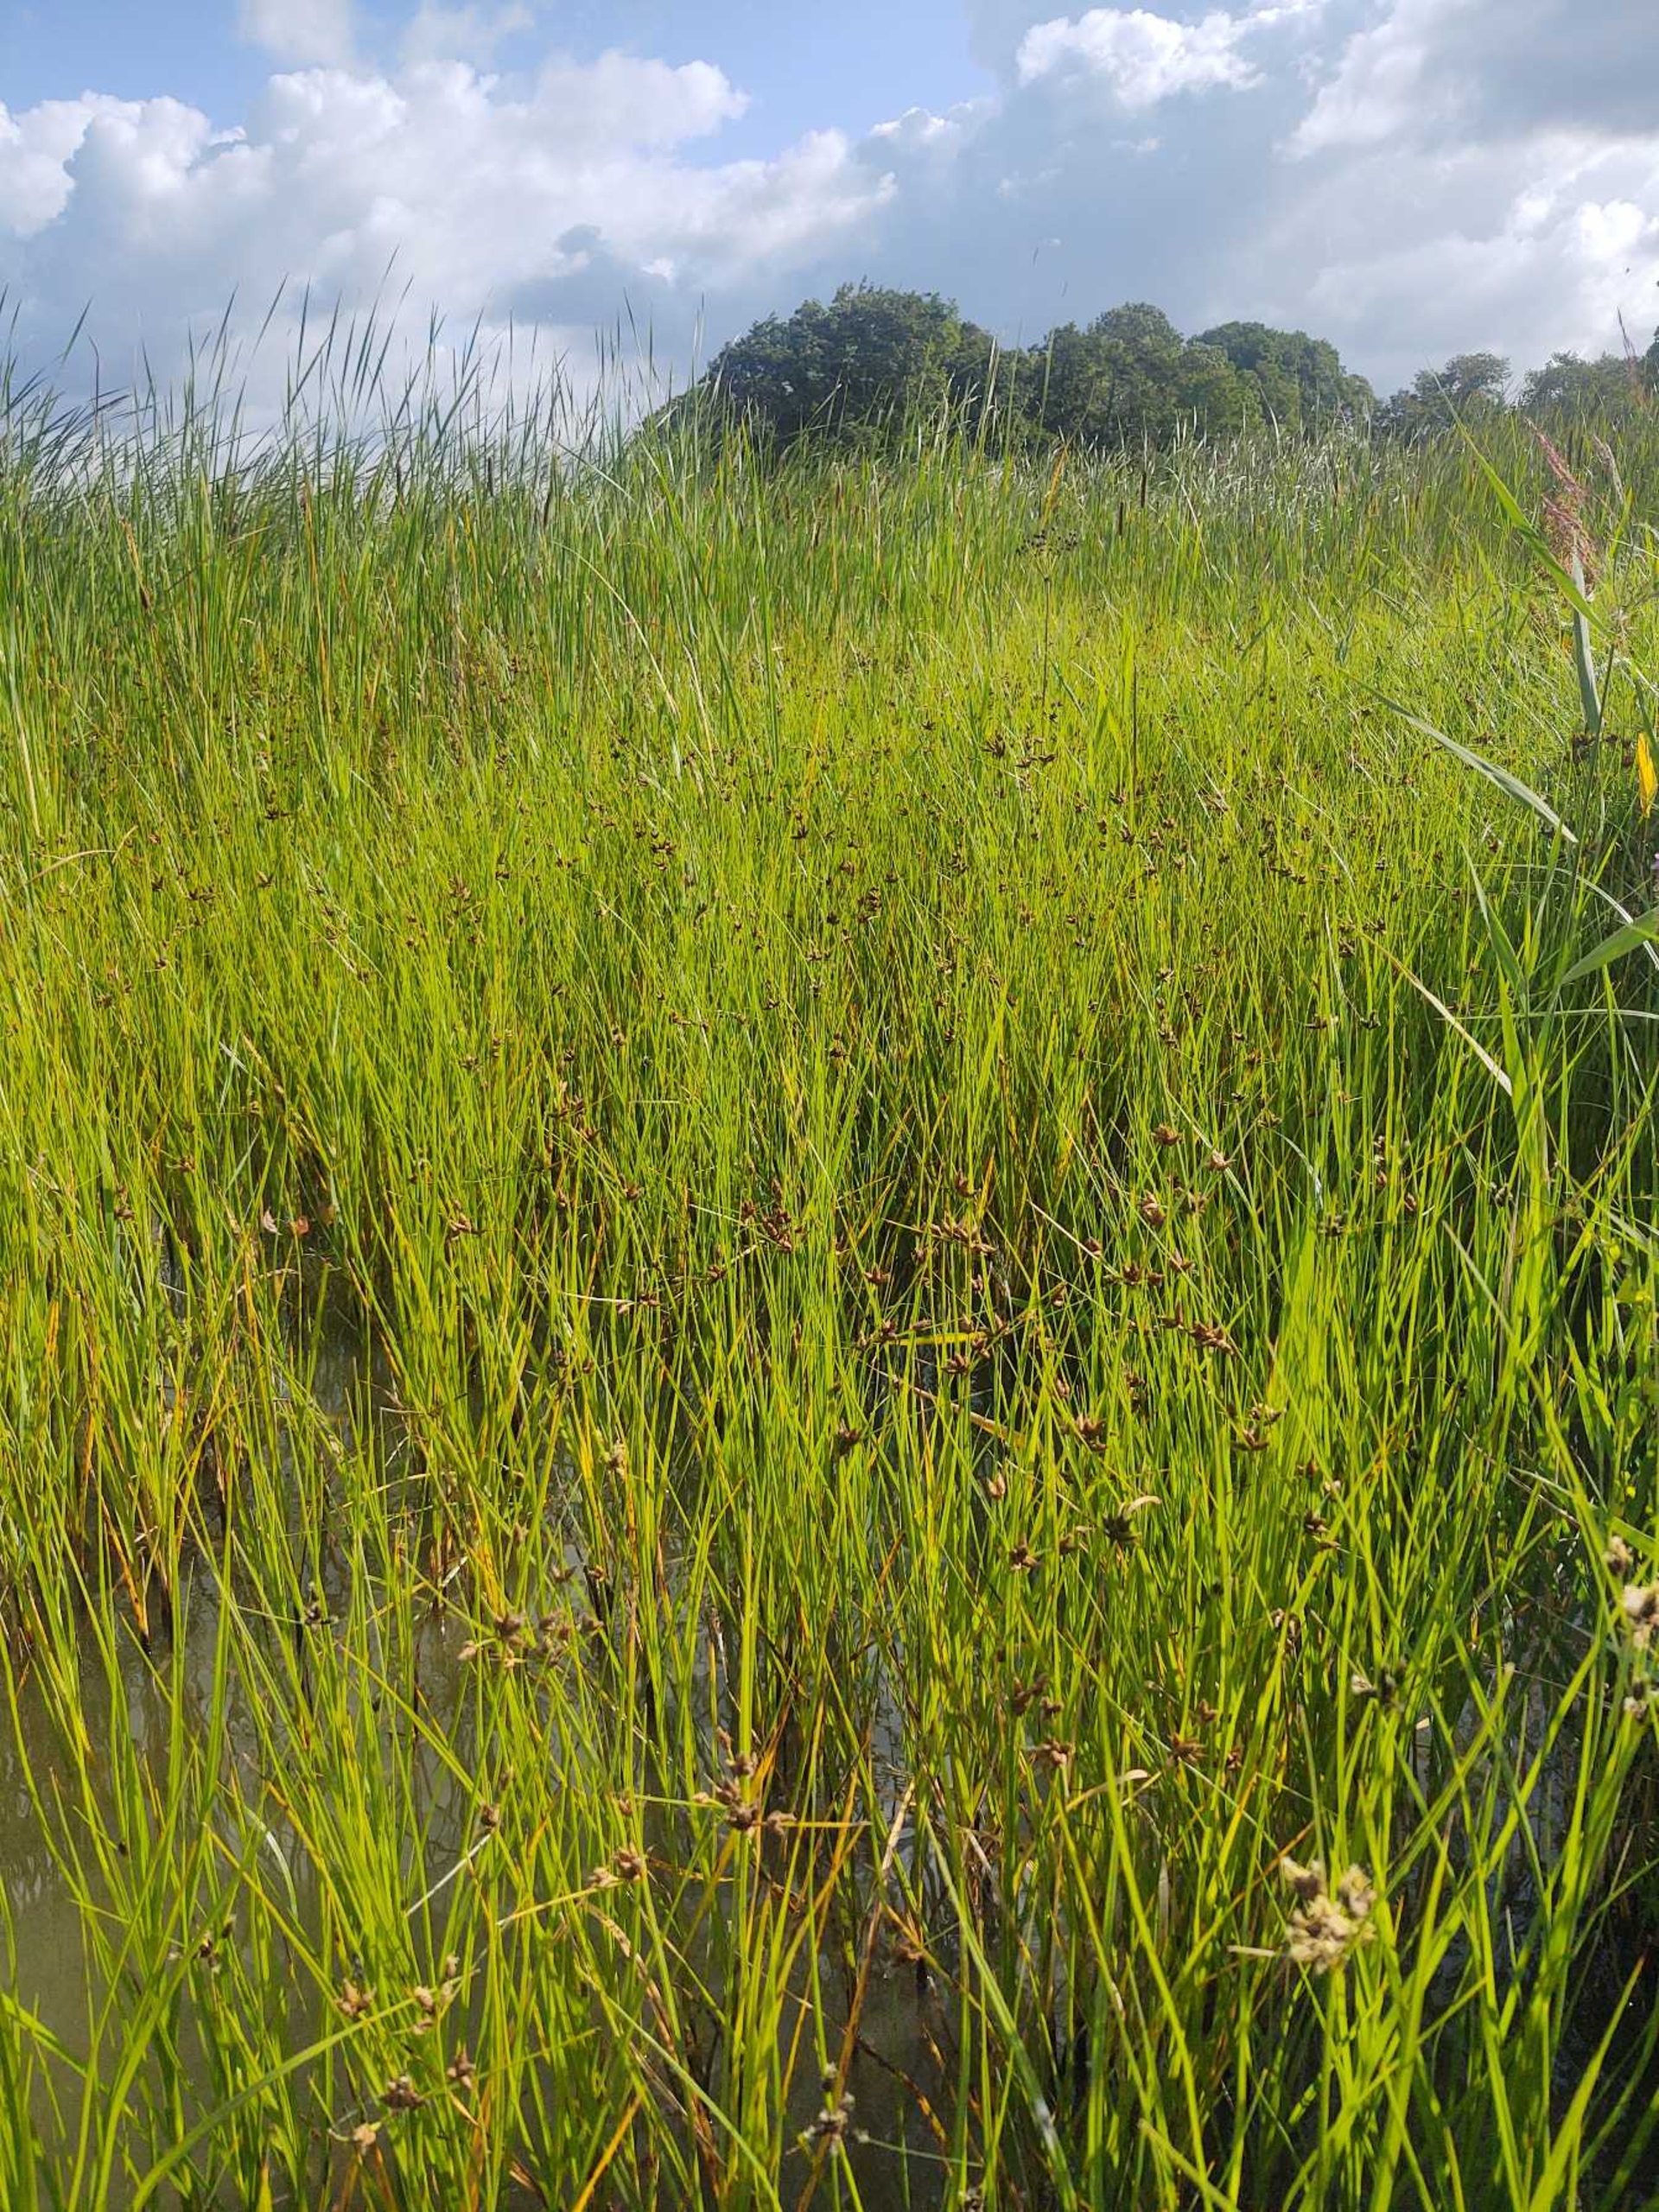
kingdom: Plantae
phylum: Tracheophyta
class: Liliopsida
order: Poales
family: Cyperaceae
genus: Bolboschoenus
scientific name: Bolboschoenus maritimus
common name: Strand-kogleaks
